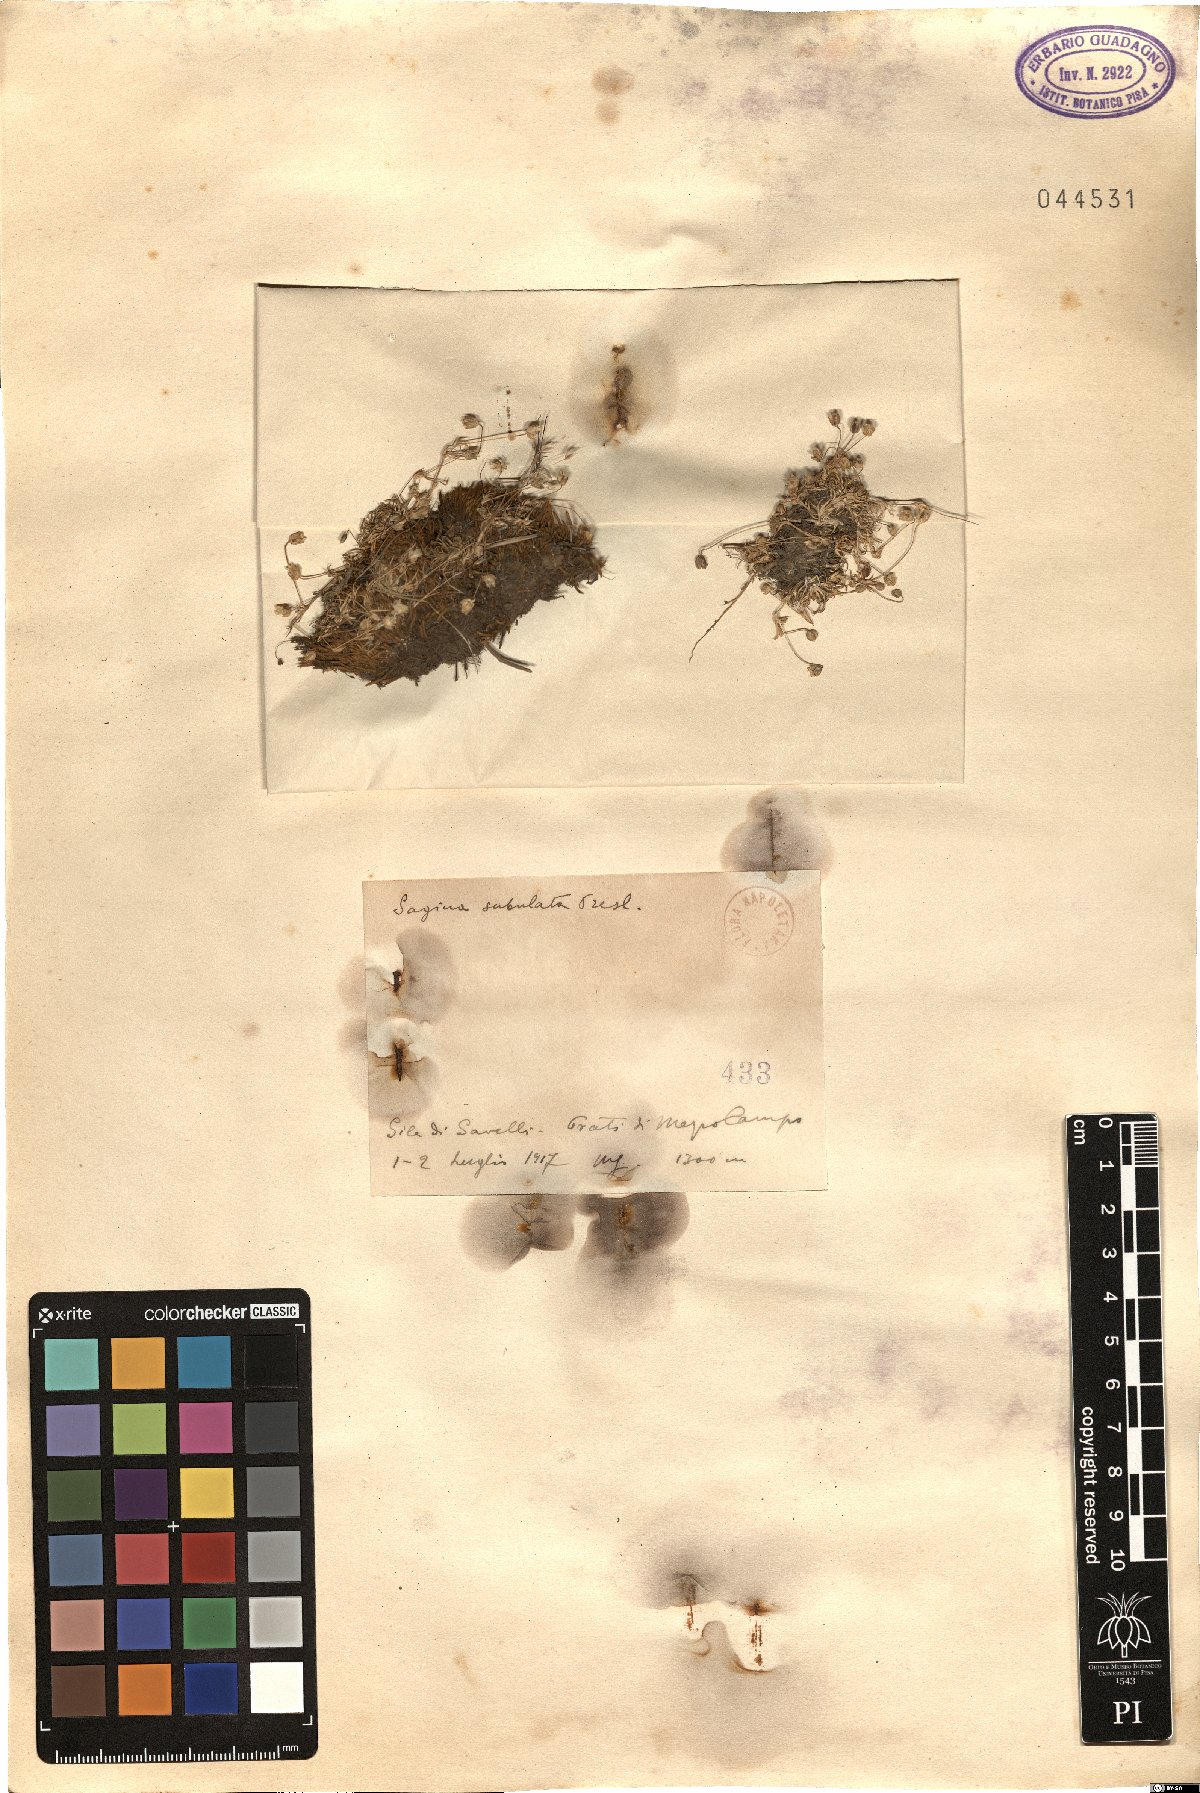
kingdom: Plantae
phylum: Tracheophyta
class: Magnoliopsida
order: Caryophyllales
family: Caryophyllaceae
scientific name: Caryophyllaceae
